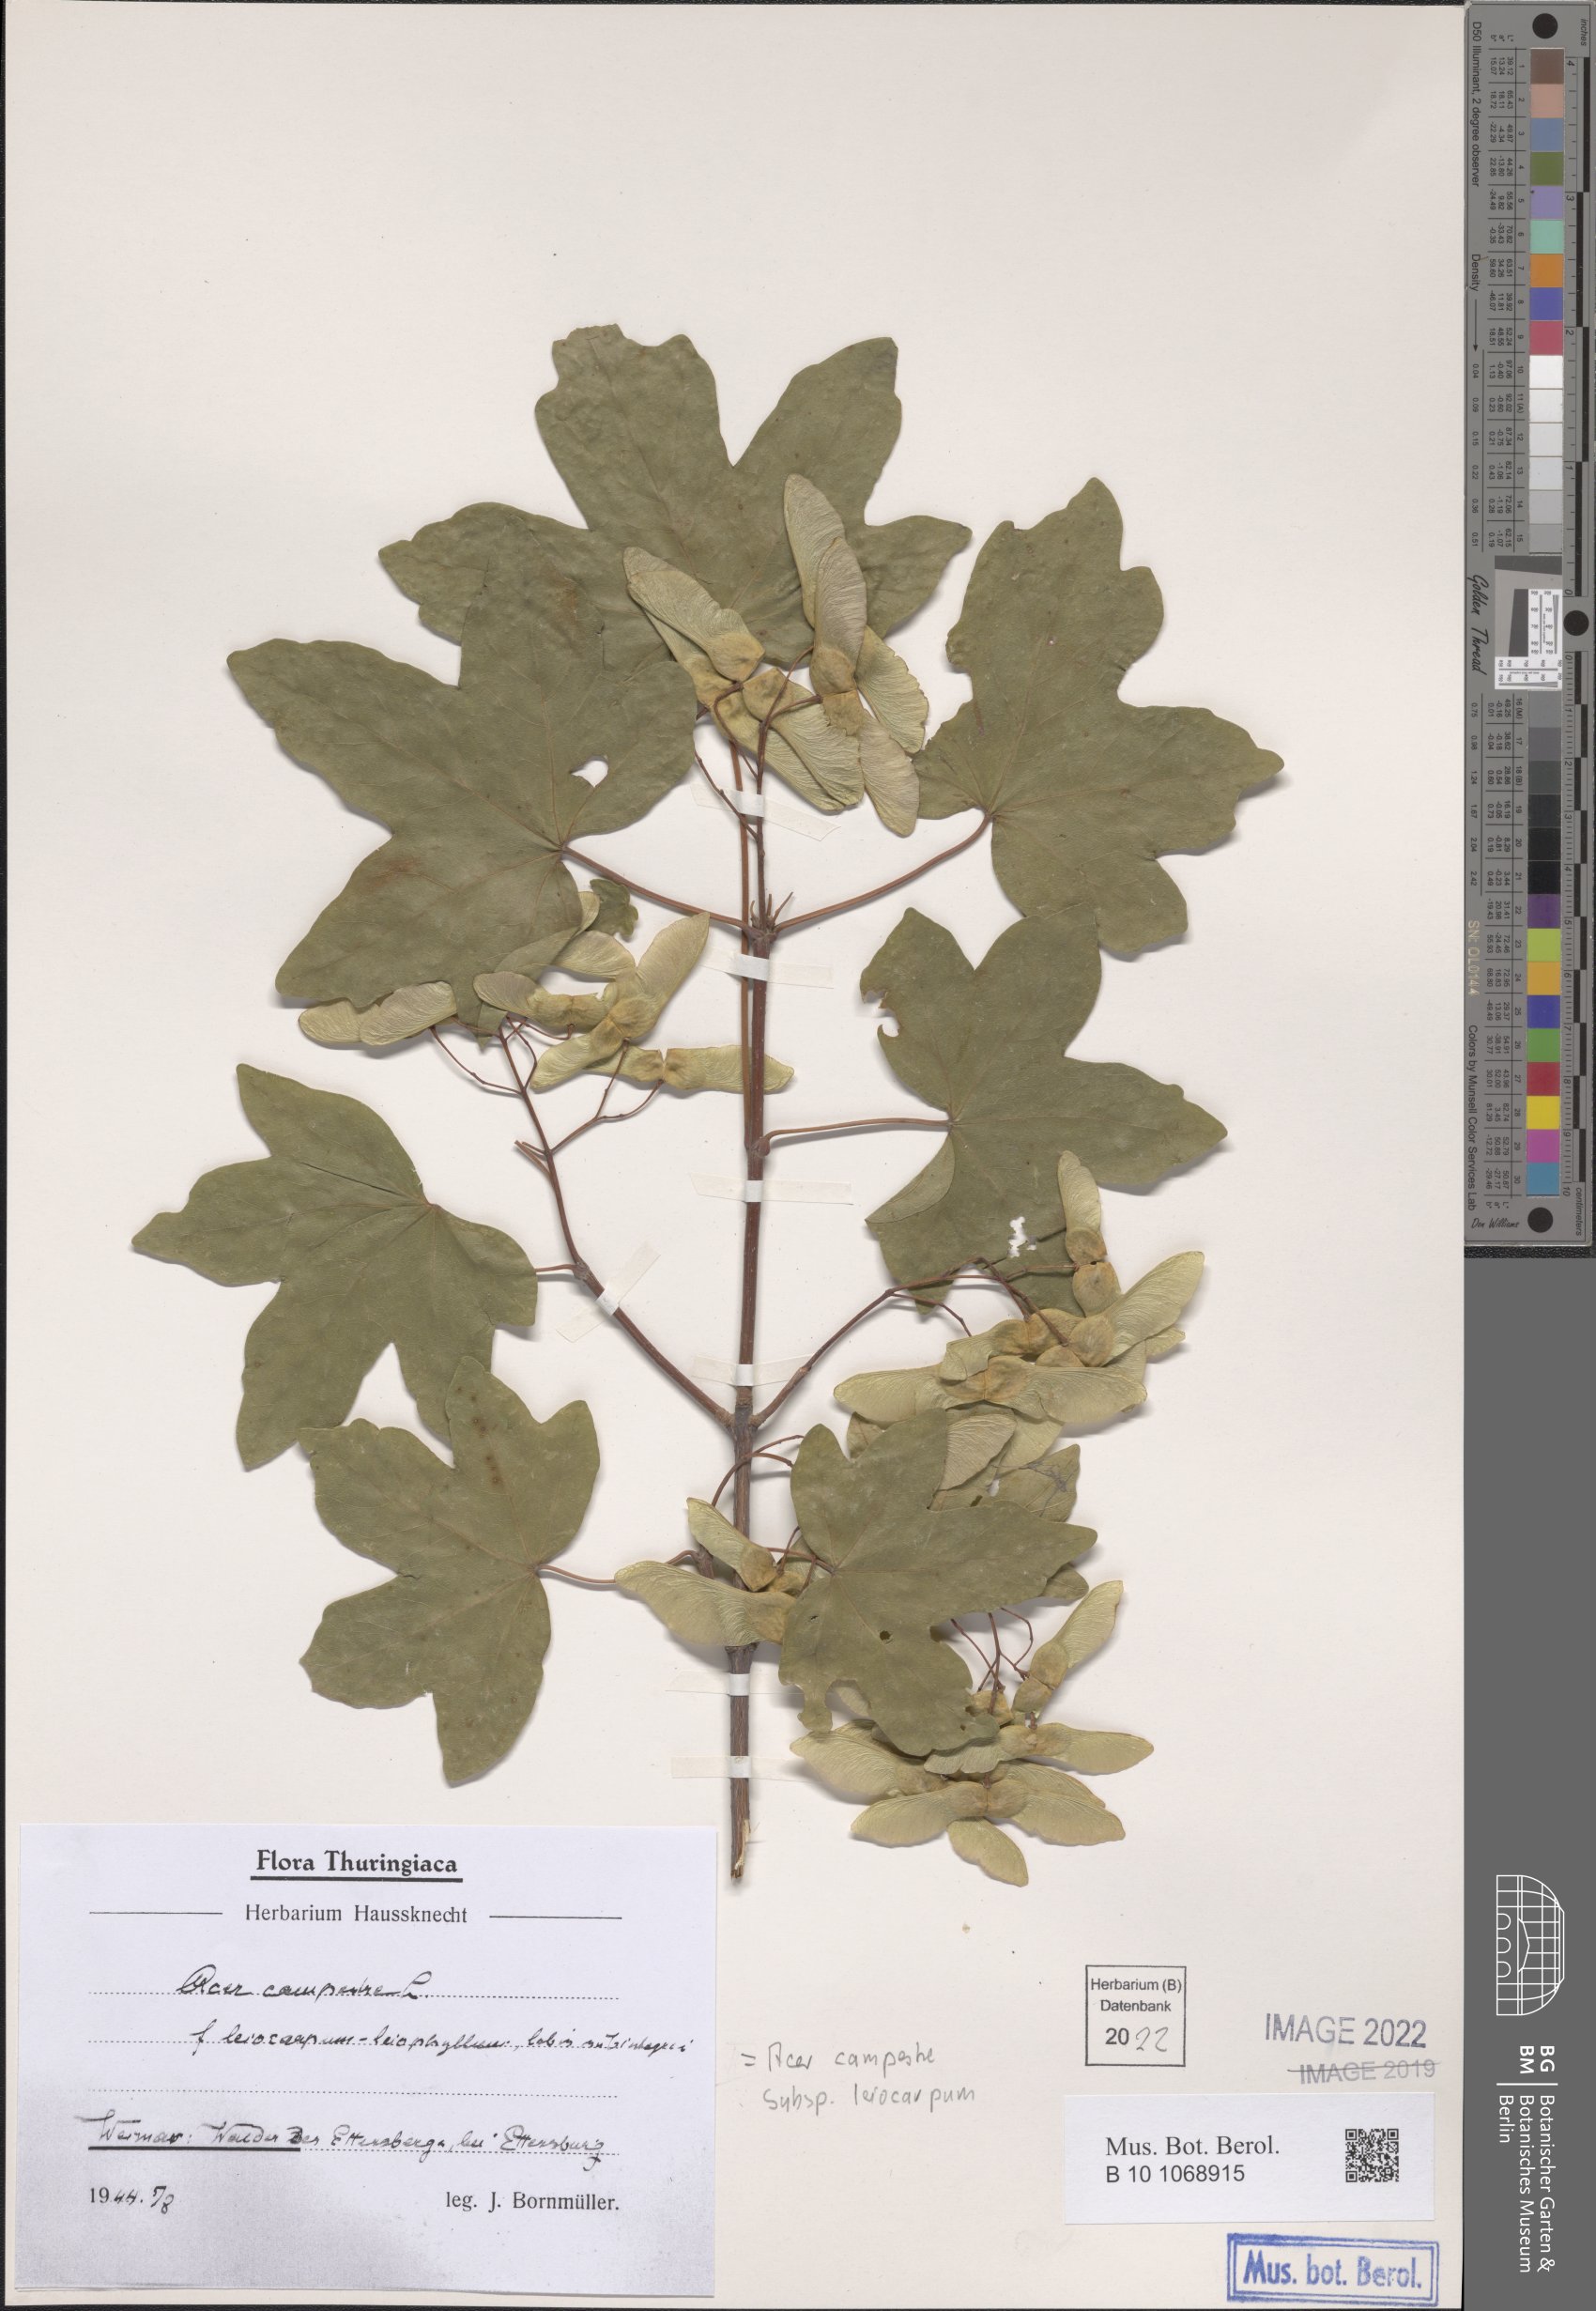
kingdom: Plantae
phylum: Tracheophyta
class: Magnoliopsida
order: Sapindales
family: Sapindaceae
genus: Acer
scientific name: Acer campestre
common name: Field maple
